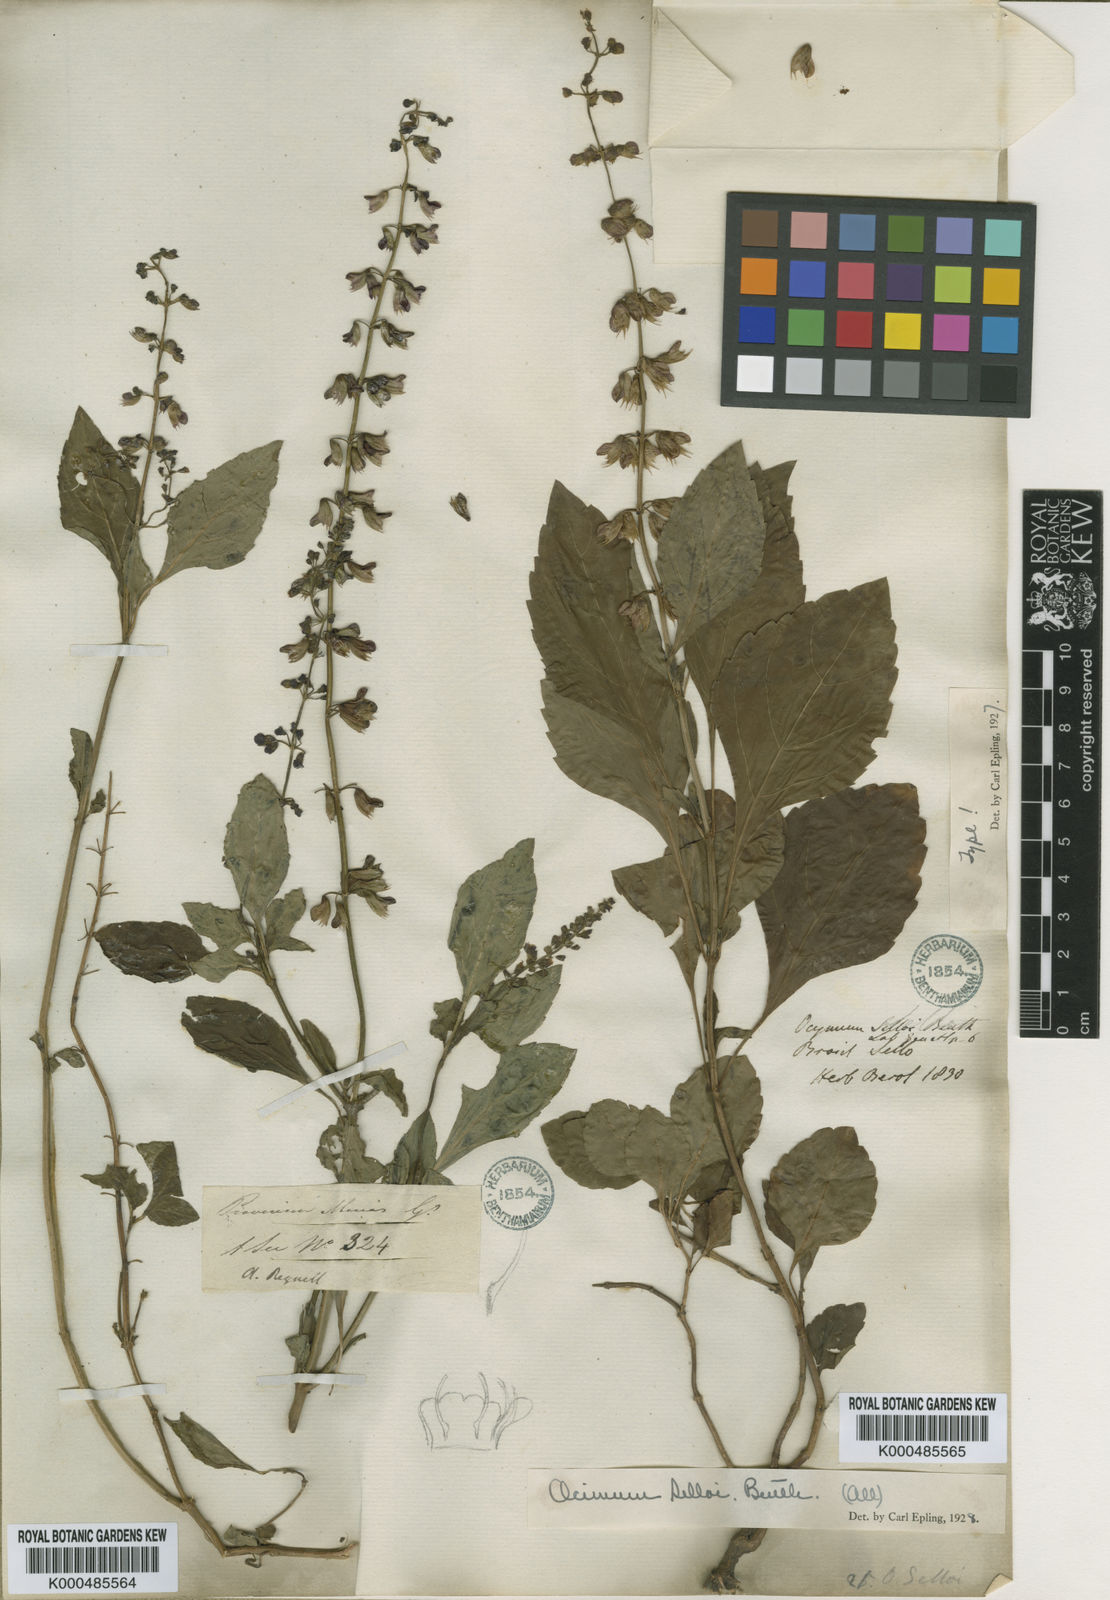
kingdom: Plantae
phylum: Tracheophyta
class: Magnoliopsida
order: Lamiales
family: Lamiaceae
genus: Ocimum
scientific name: Ocimum carnosum
